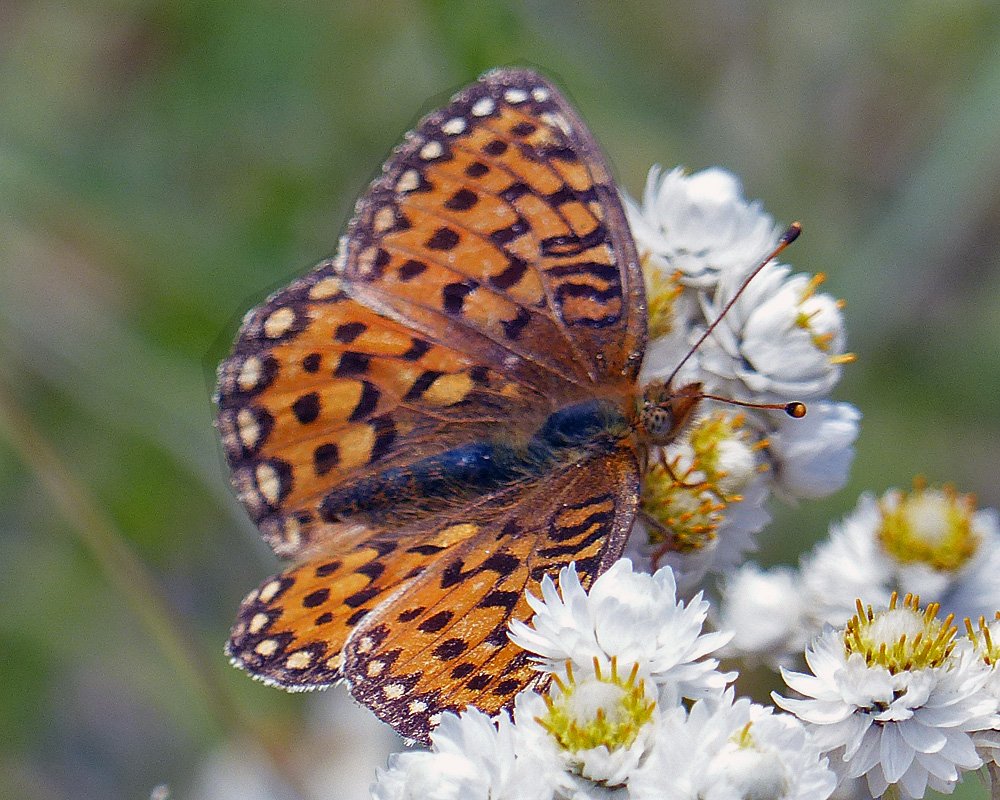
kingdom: Animalia
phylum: Arthropoda
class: Insecta
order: Lepidoptera
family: Nymphalidae
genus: Speyeria
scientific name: Speyeria mormonia
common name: Mormon Fritillary
